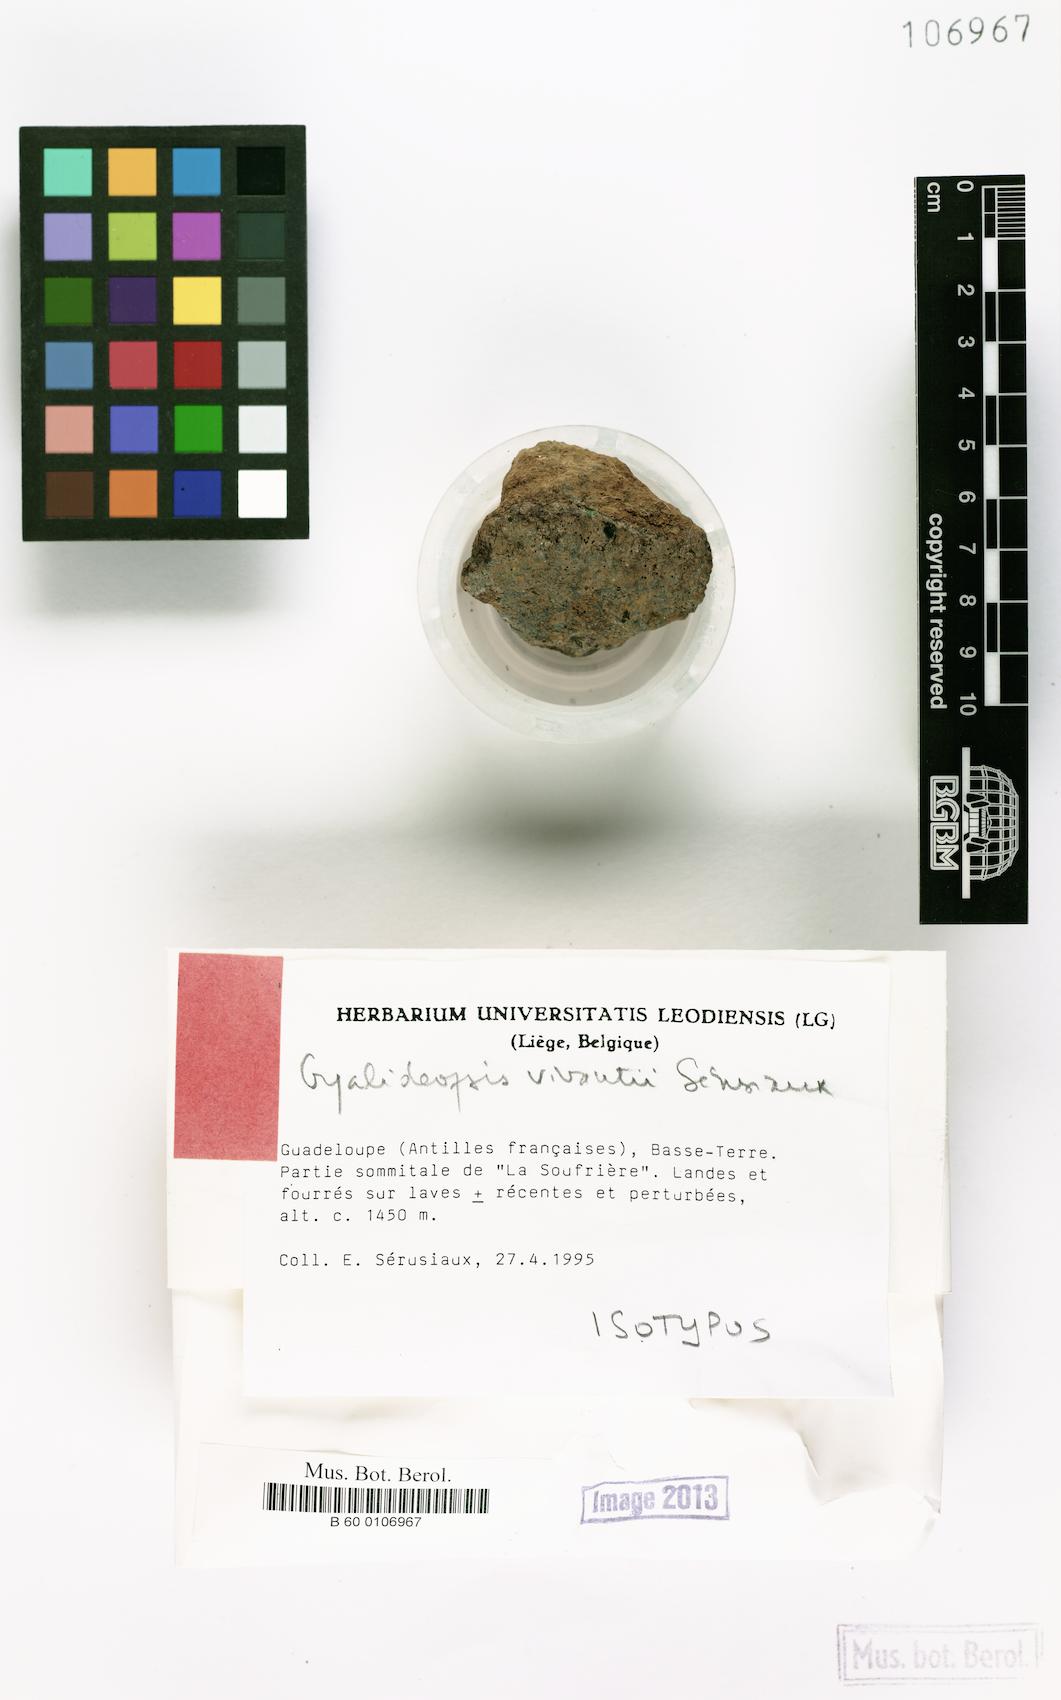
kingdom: Fungi
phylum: Ascomycota
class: Lecanoromycetes
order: Ostropales
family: Gomphillaceae
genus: Lithogyalideopsis
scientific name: Lithogyalideopsis vivantii
